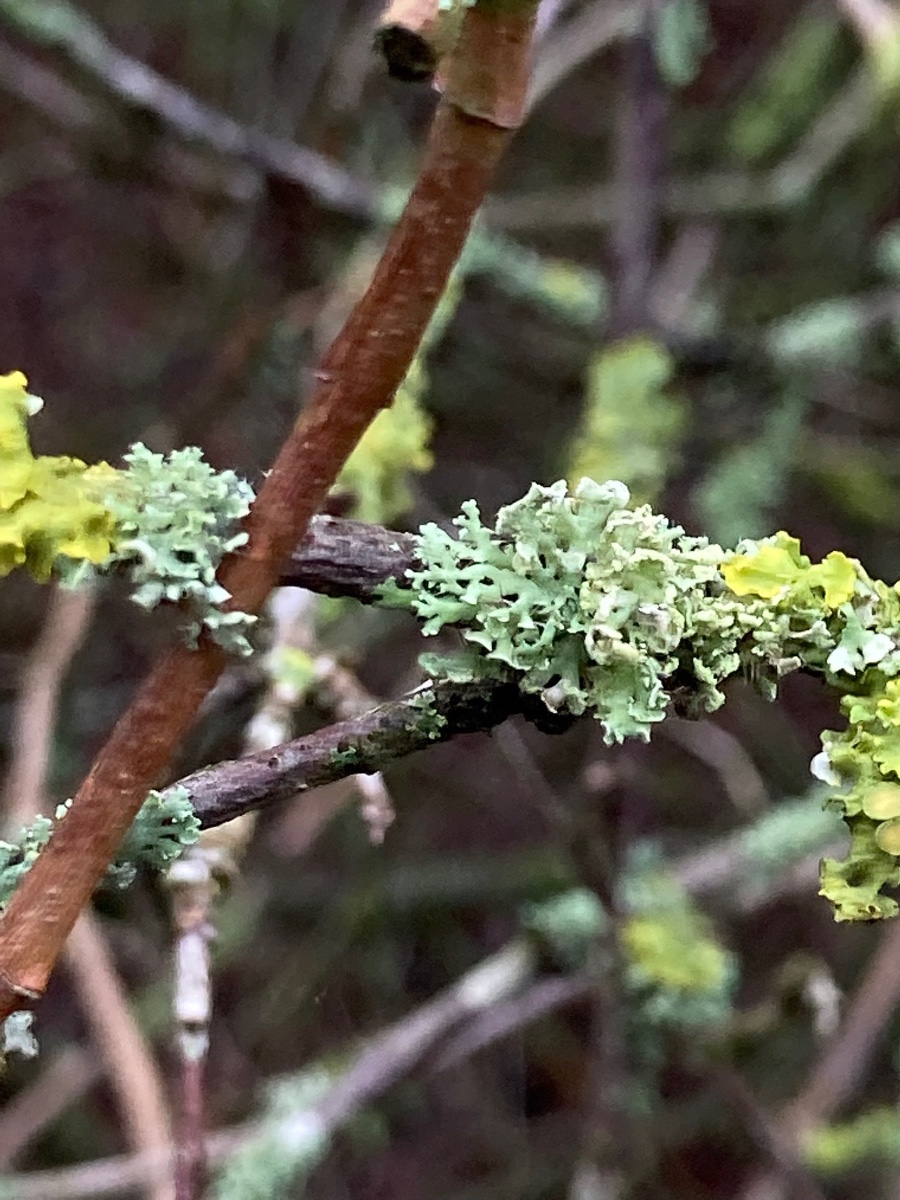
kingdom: Fungi
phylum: Ascomycota
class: Lecanoromycetes
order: Caliciales
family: Physciaceae
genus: Physcia
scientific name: Physcia tenella
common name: spæd rosetlav
